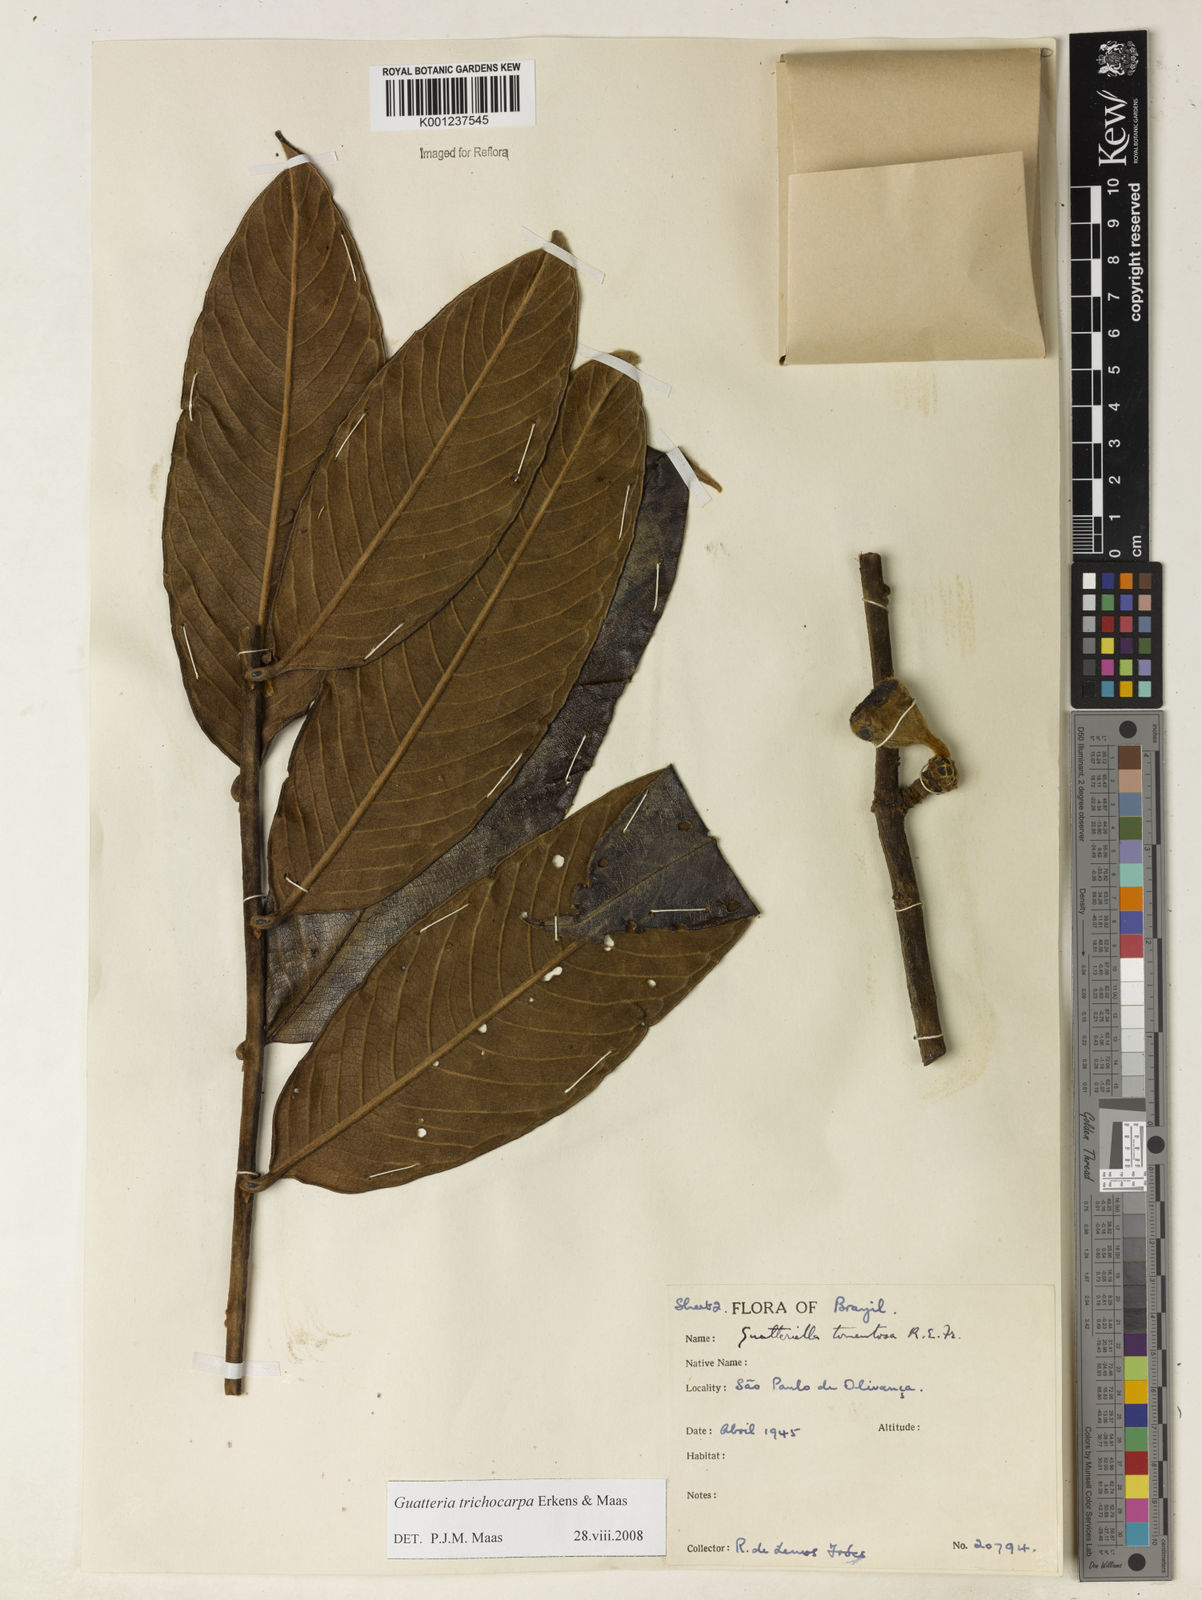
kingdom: Plantae
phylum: Tracheophyta
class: Magnoliopsida
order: Magnoliales
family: Annonaceae
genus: Guatteria
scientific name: Guatteria trichocarpa
